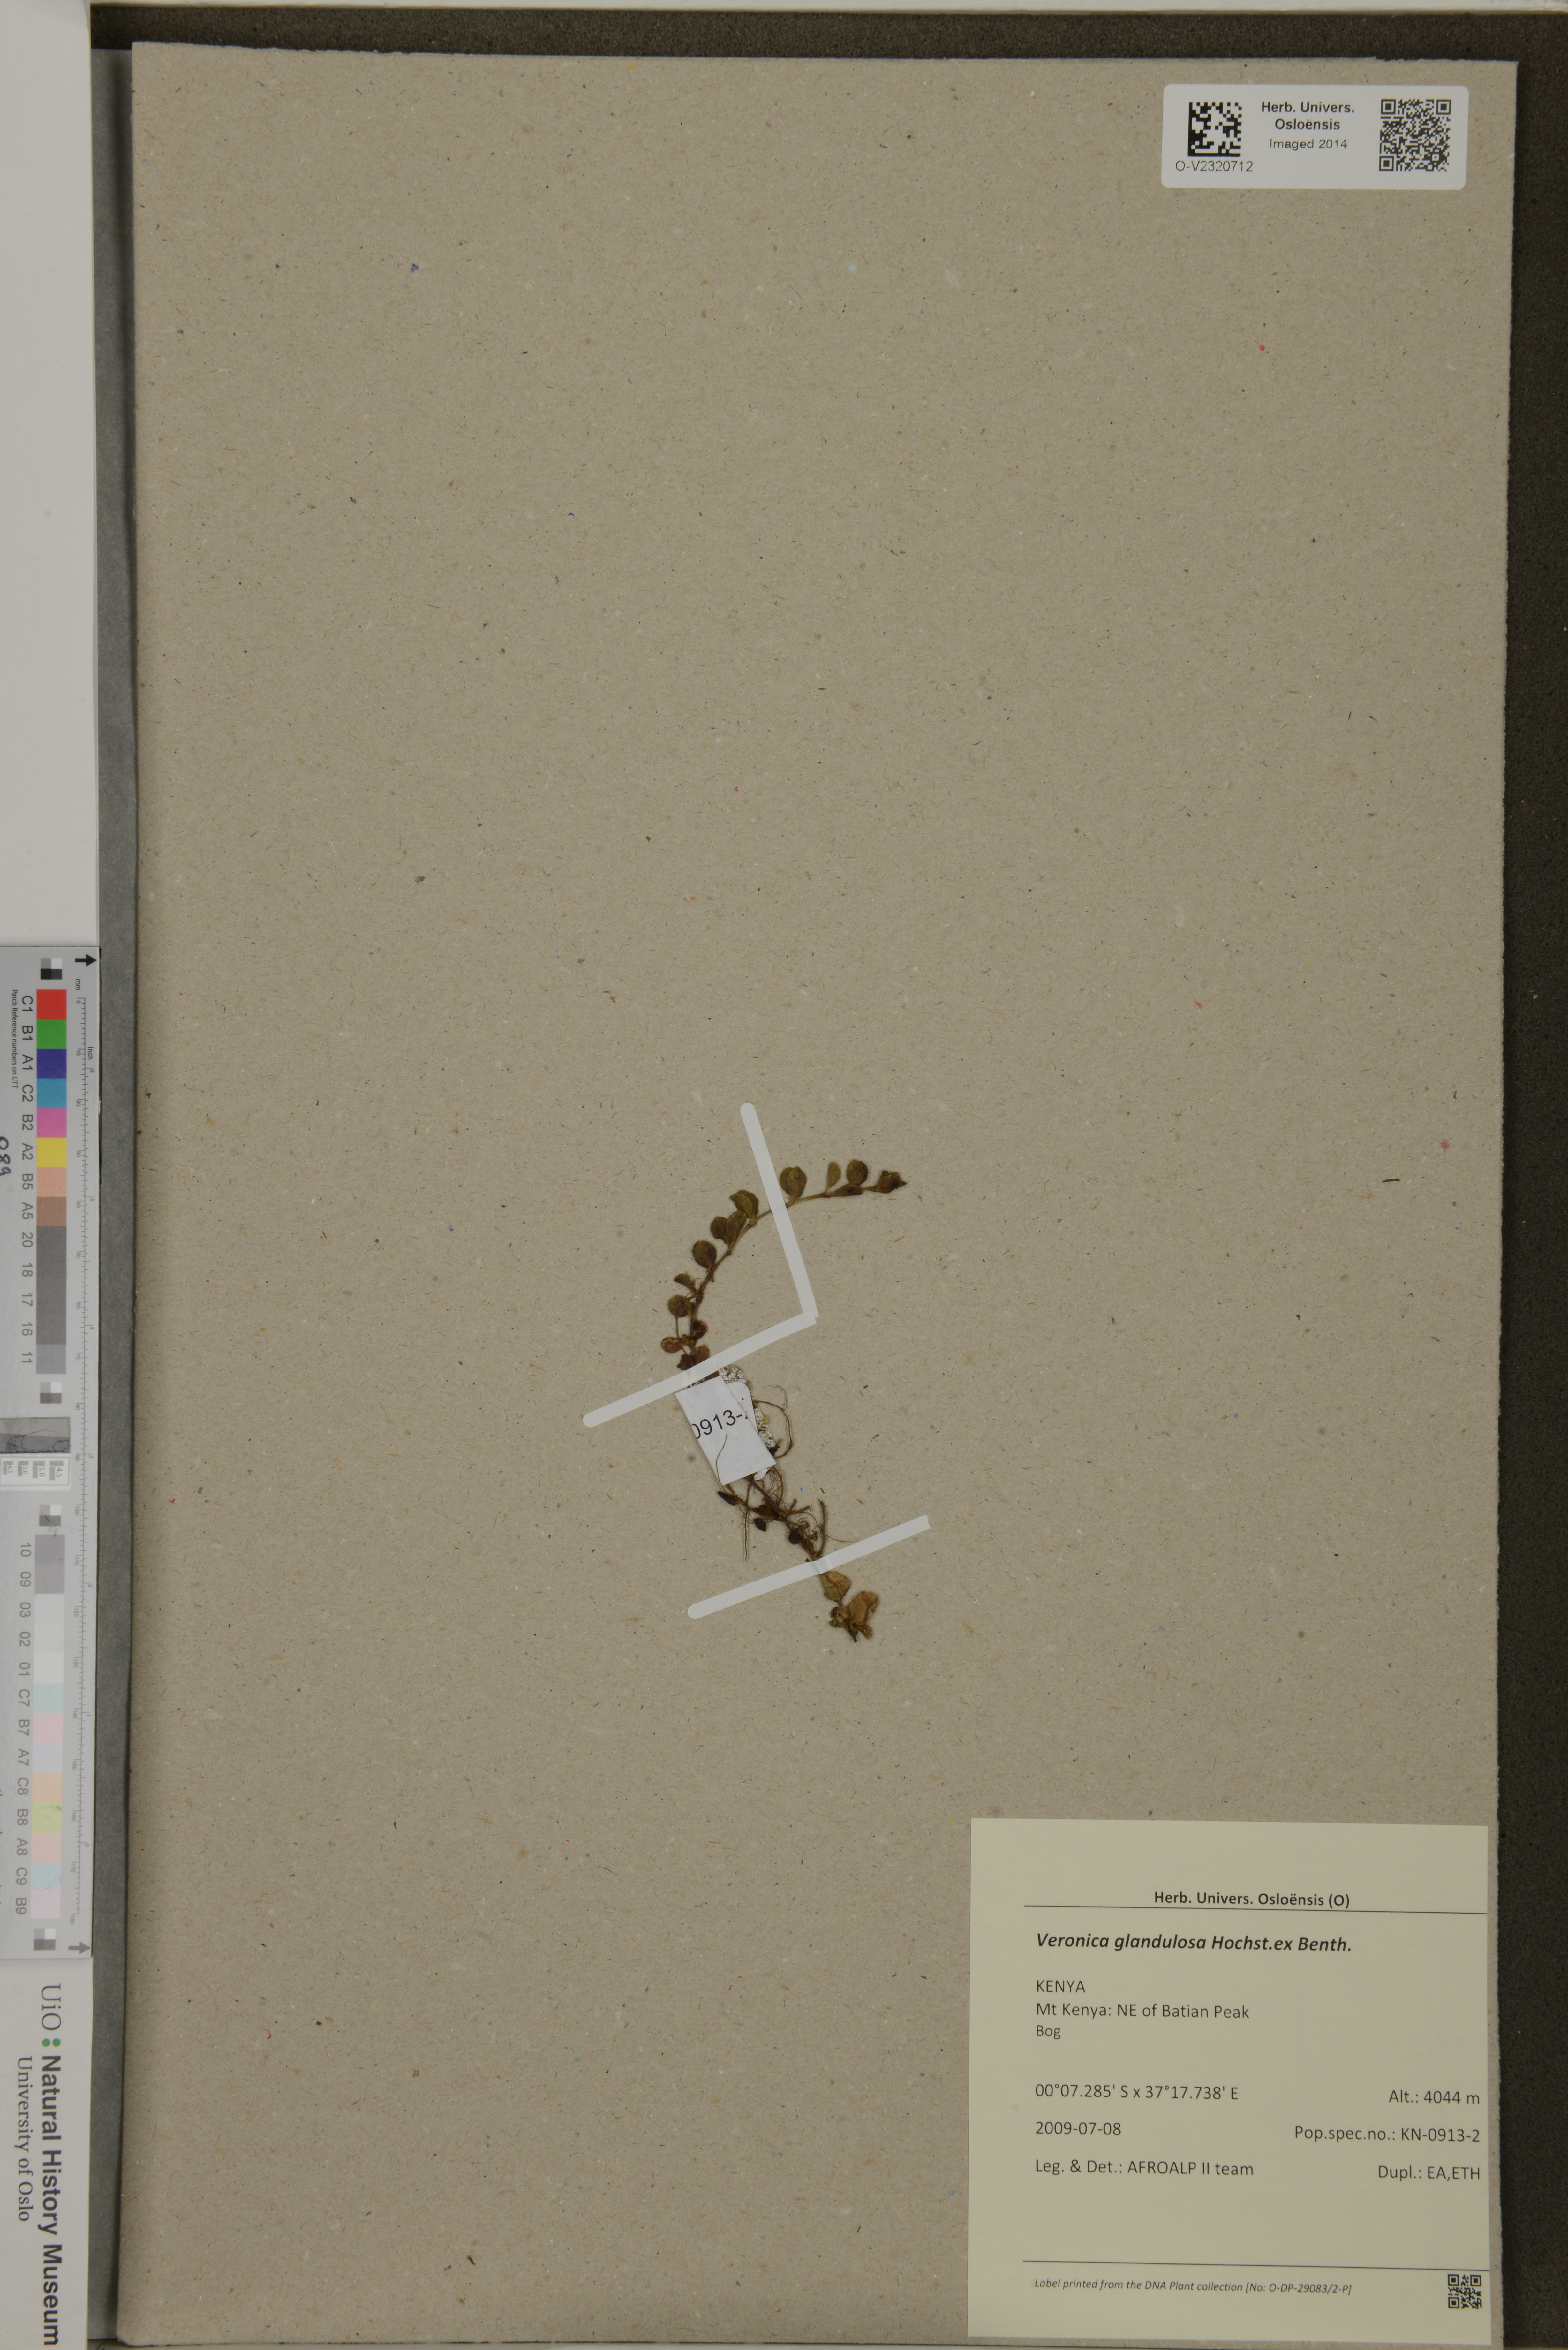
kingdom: Plantae
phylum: Tracheophyta
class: Magnoliopsida
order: Lamiales
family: Plantaginaceae
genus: Veronica
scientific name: Veronica glandulosa
